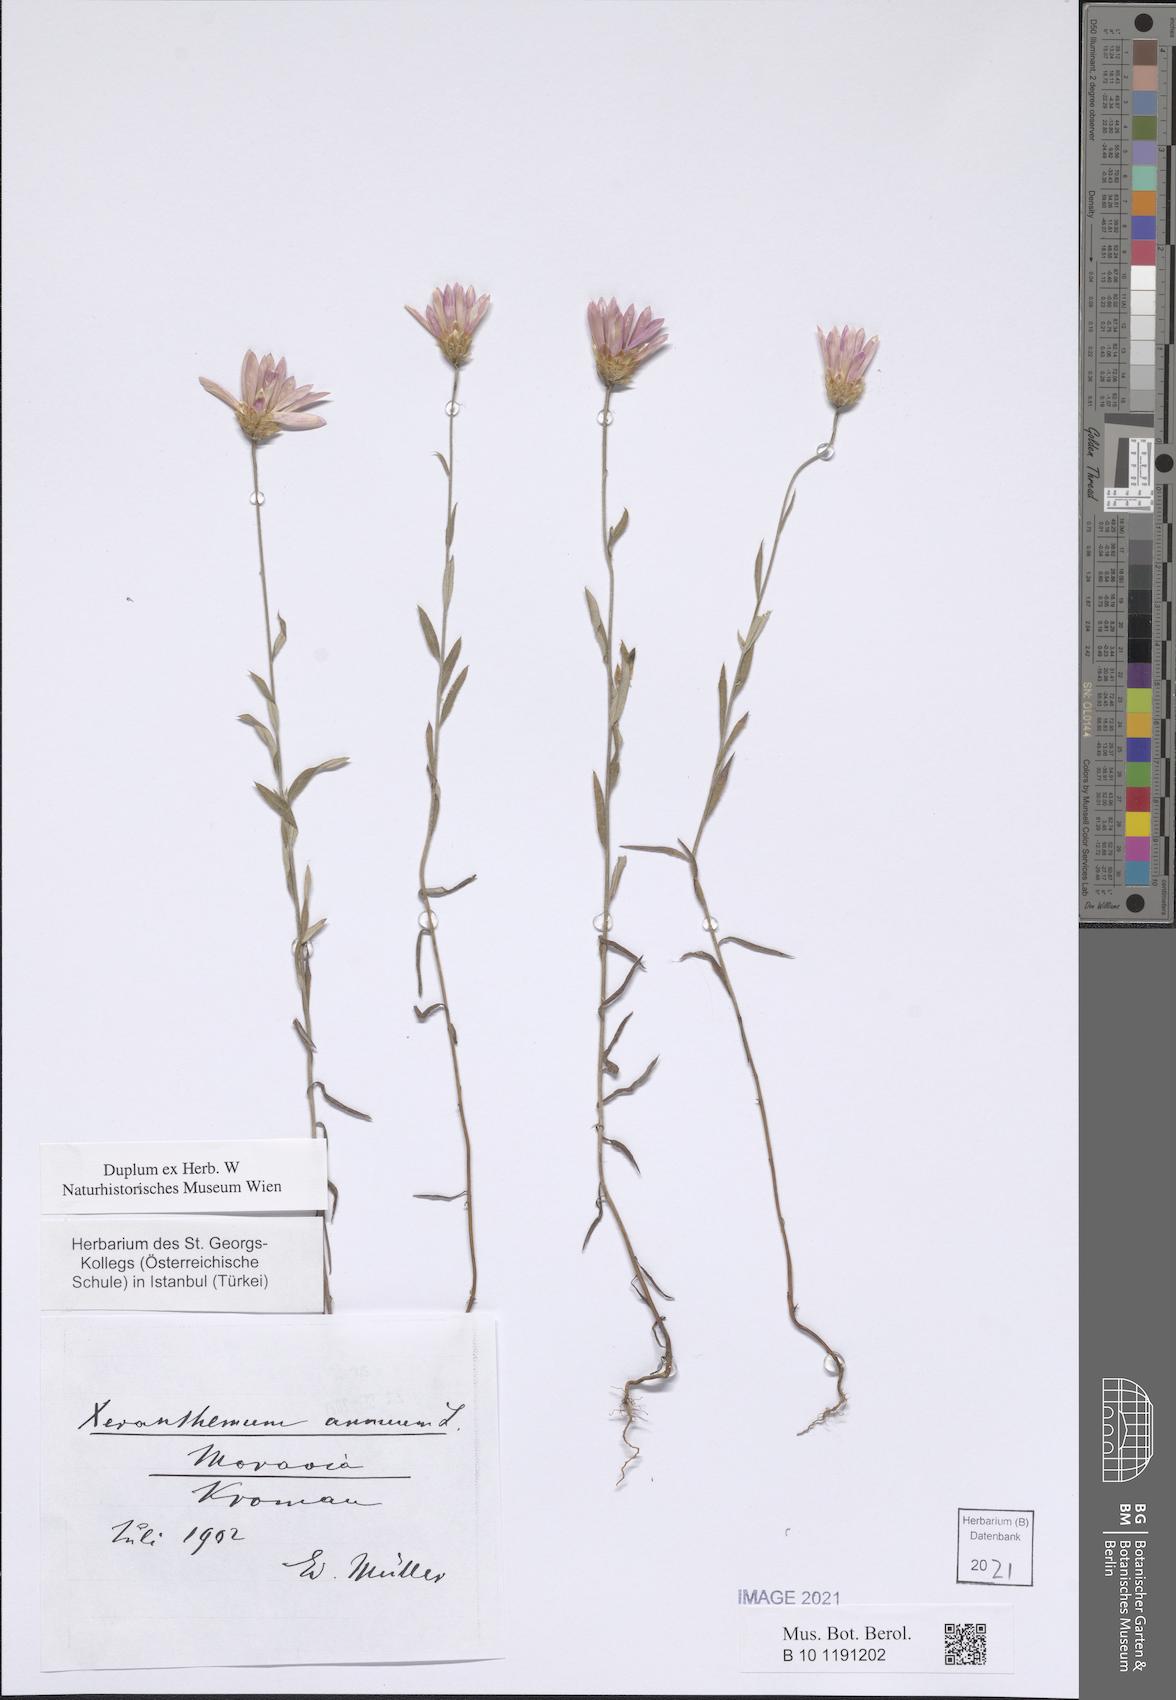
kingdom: Plantae
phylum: Tracheophyta
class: Magnoliopsida
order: Asterales
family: Asteraceae
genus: Xeranthemum
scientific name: Xeranthemum cylindraceum
